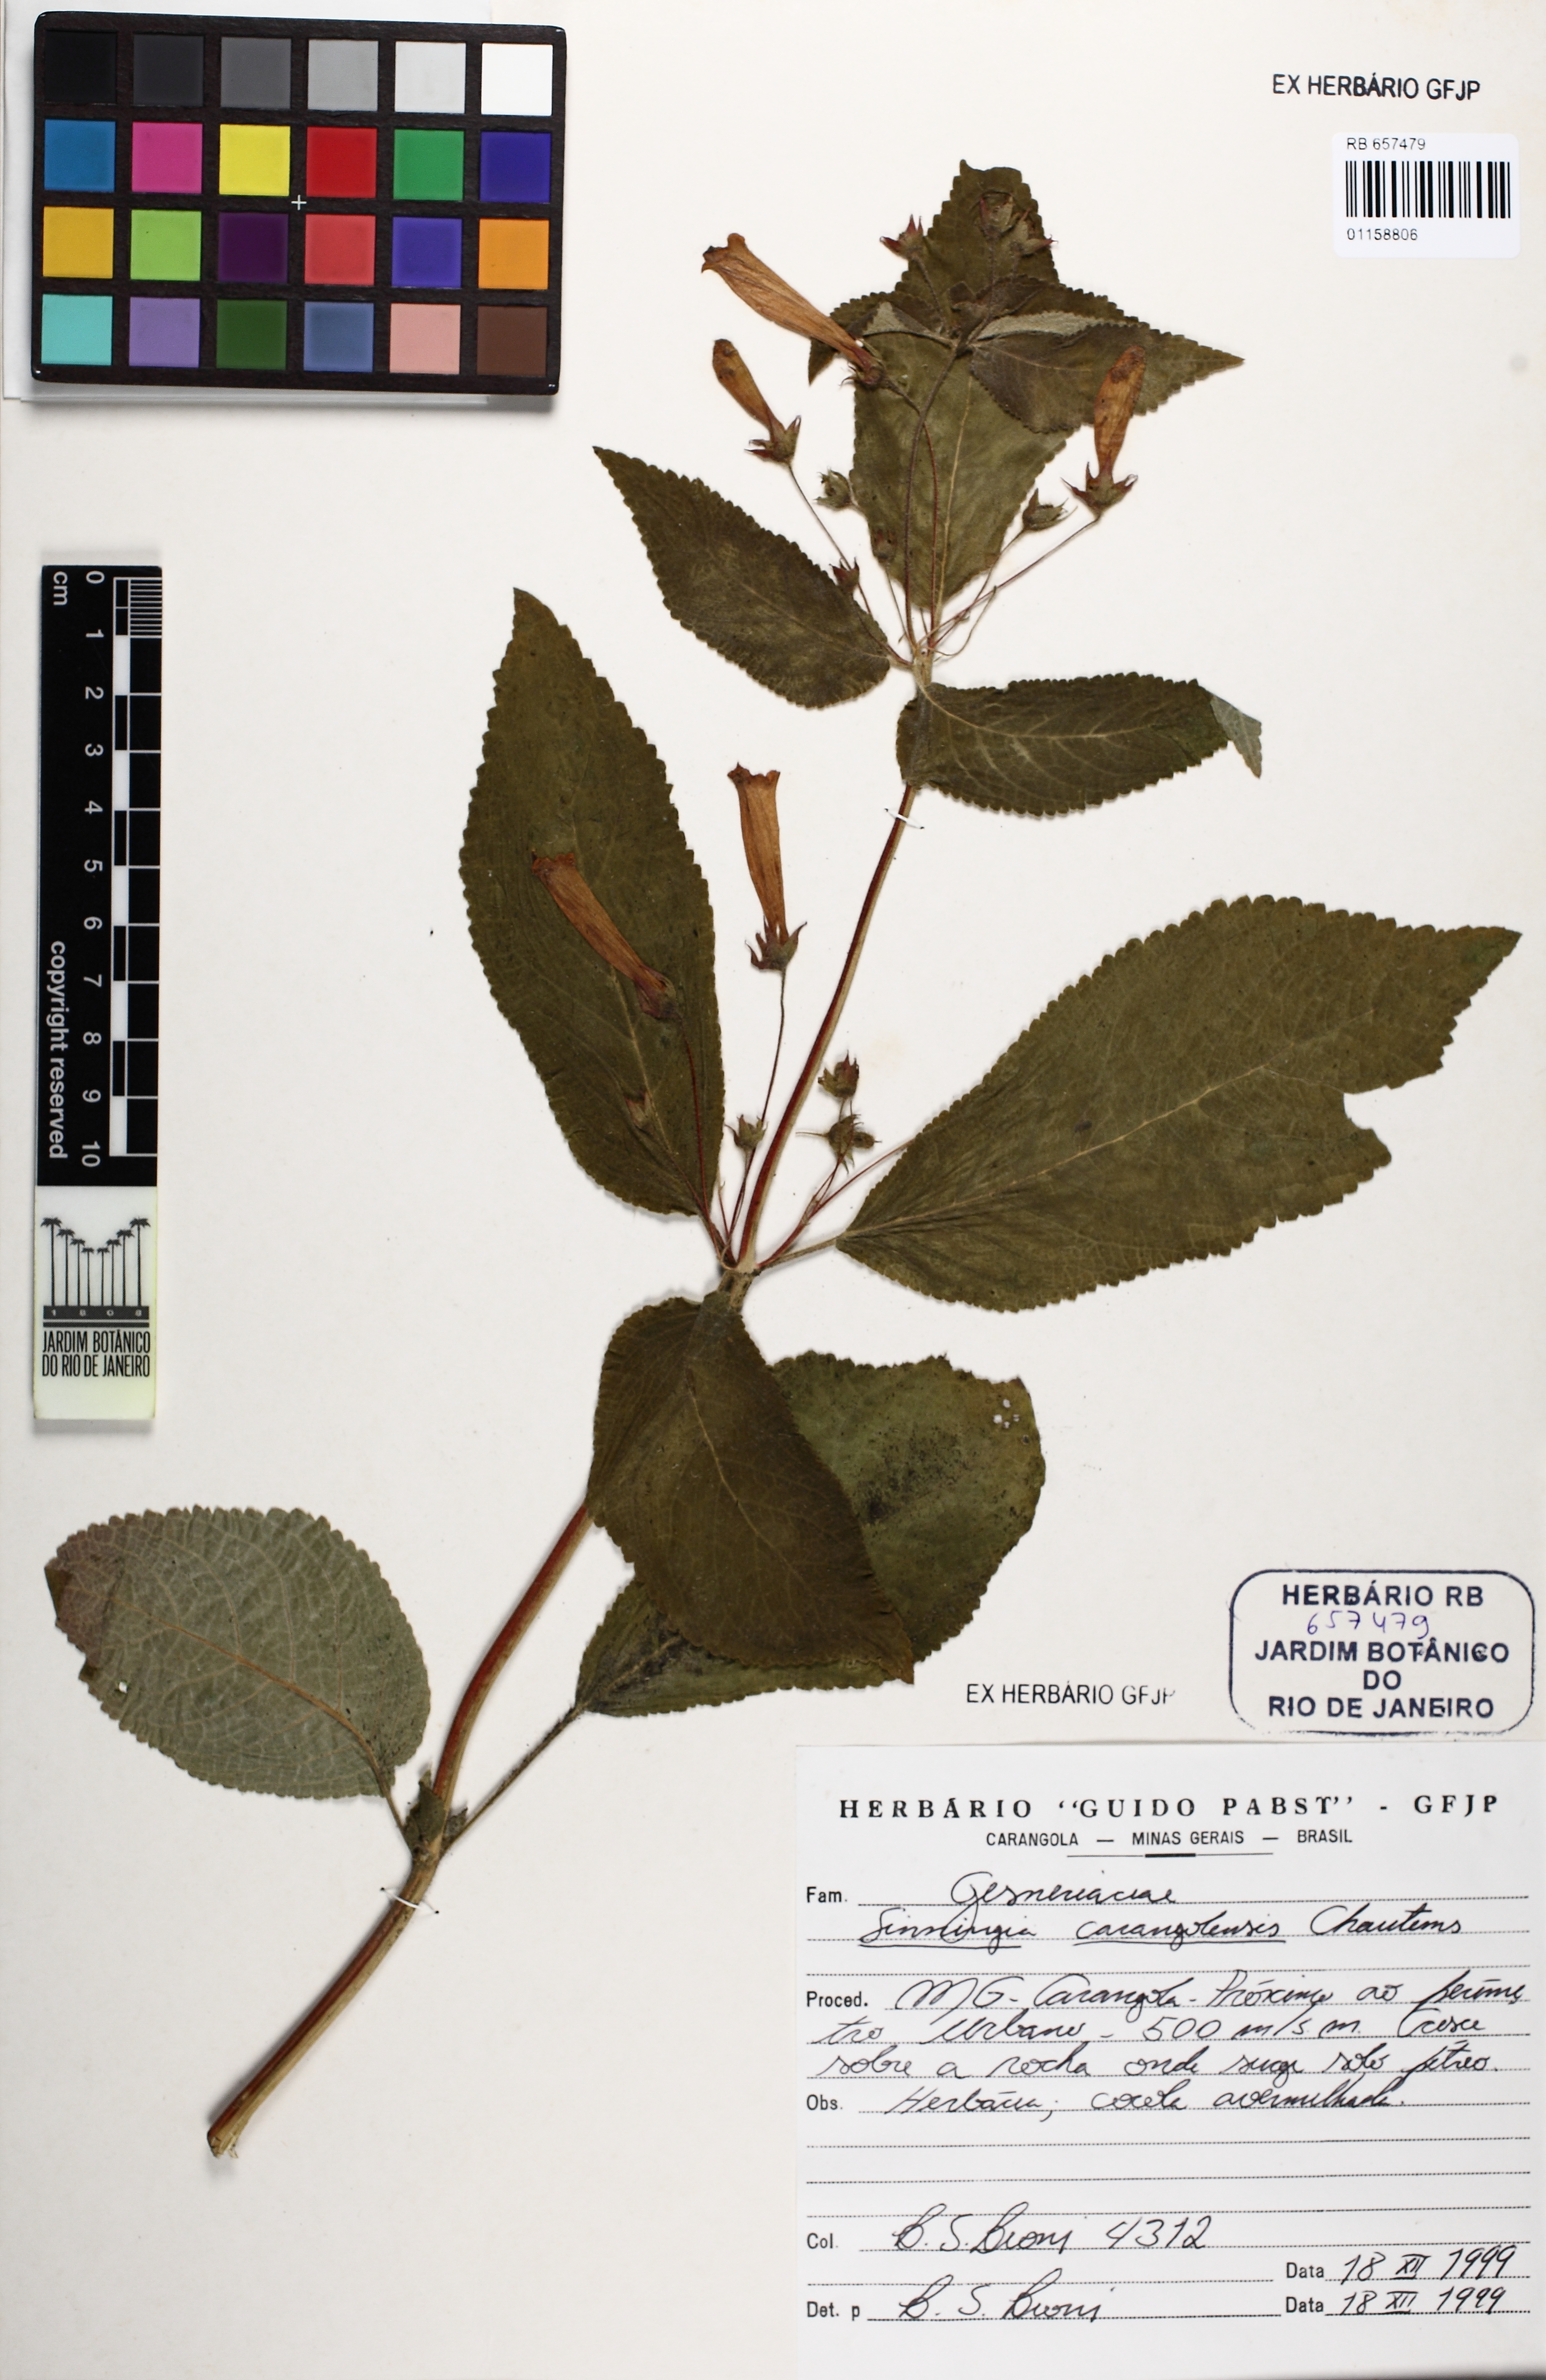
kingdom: Plantae
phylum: Tracheophyta
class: Magnoliopsida
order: Lamiales
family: Gesneriaceae
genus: Sinningia
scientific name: Sinningia carangolensis
